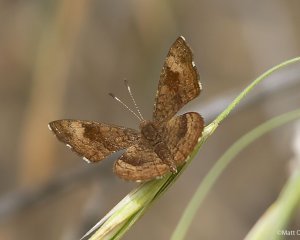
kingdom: Animalia
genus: Calephelis
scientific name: Calephelis nemesis
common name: Fatal Metalmark
